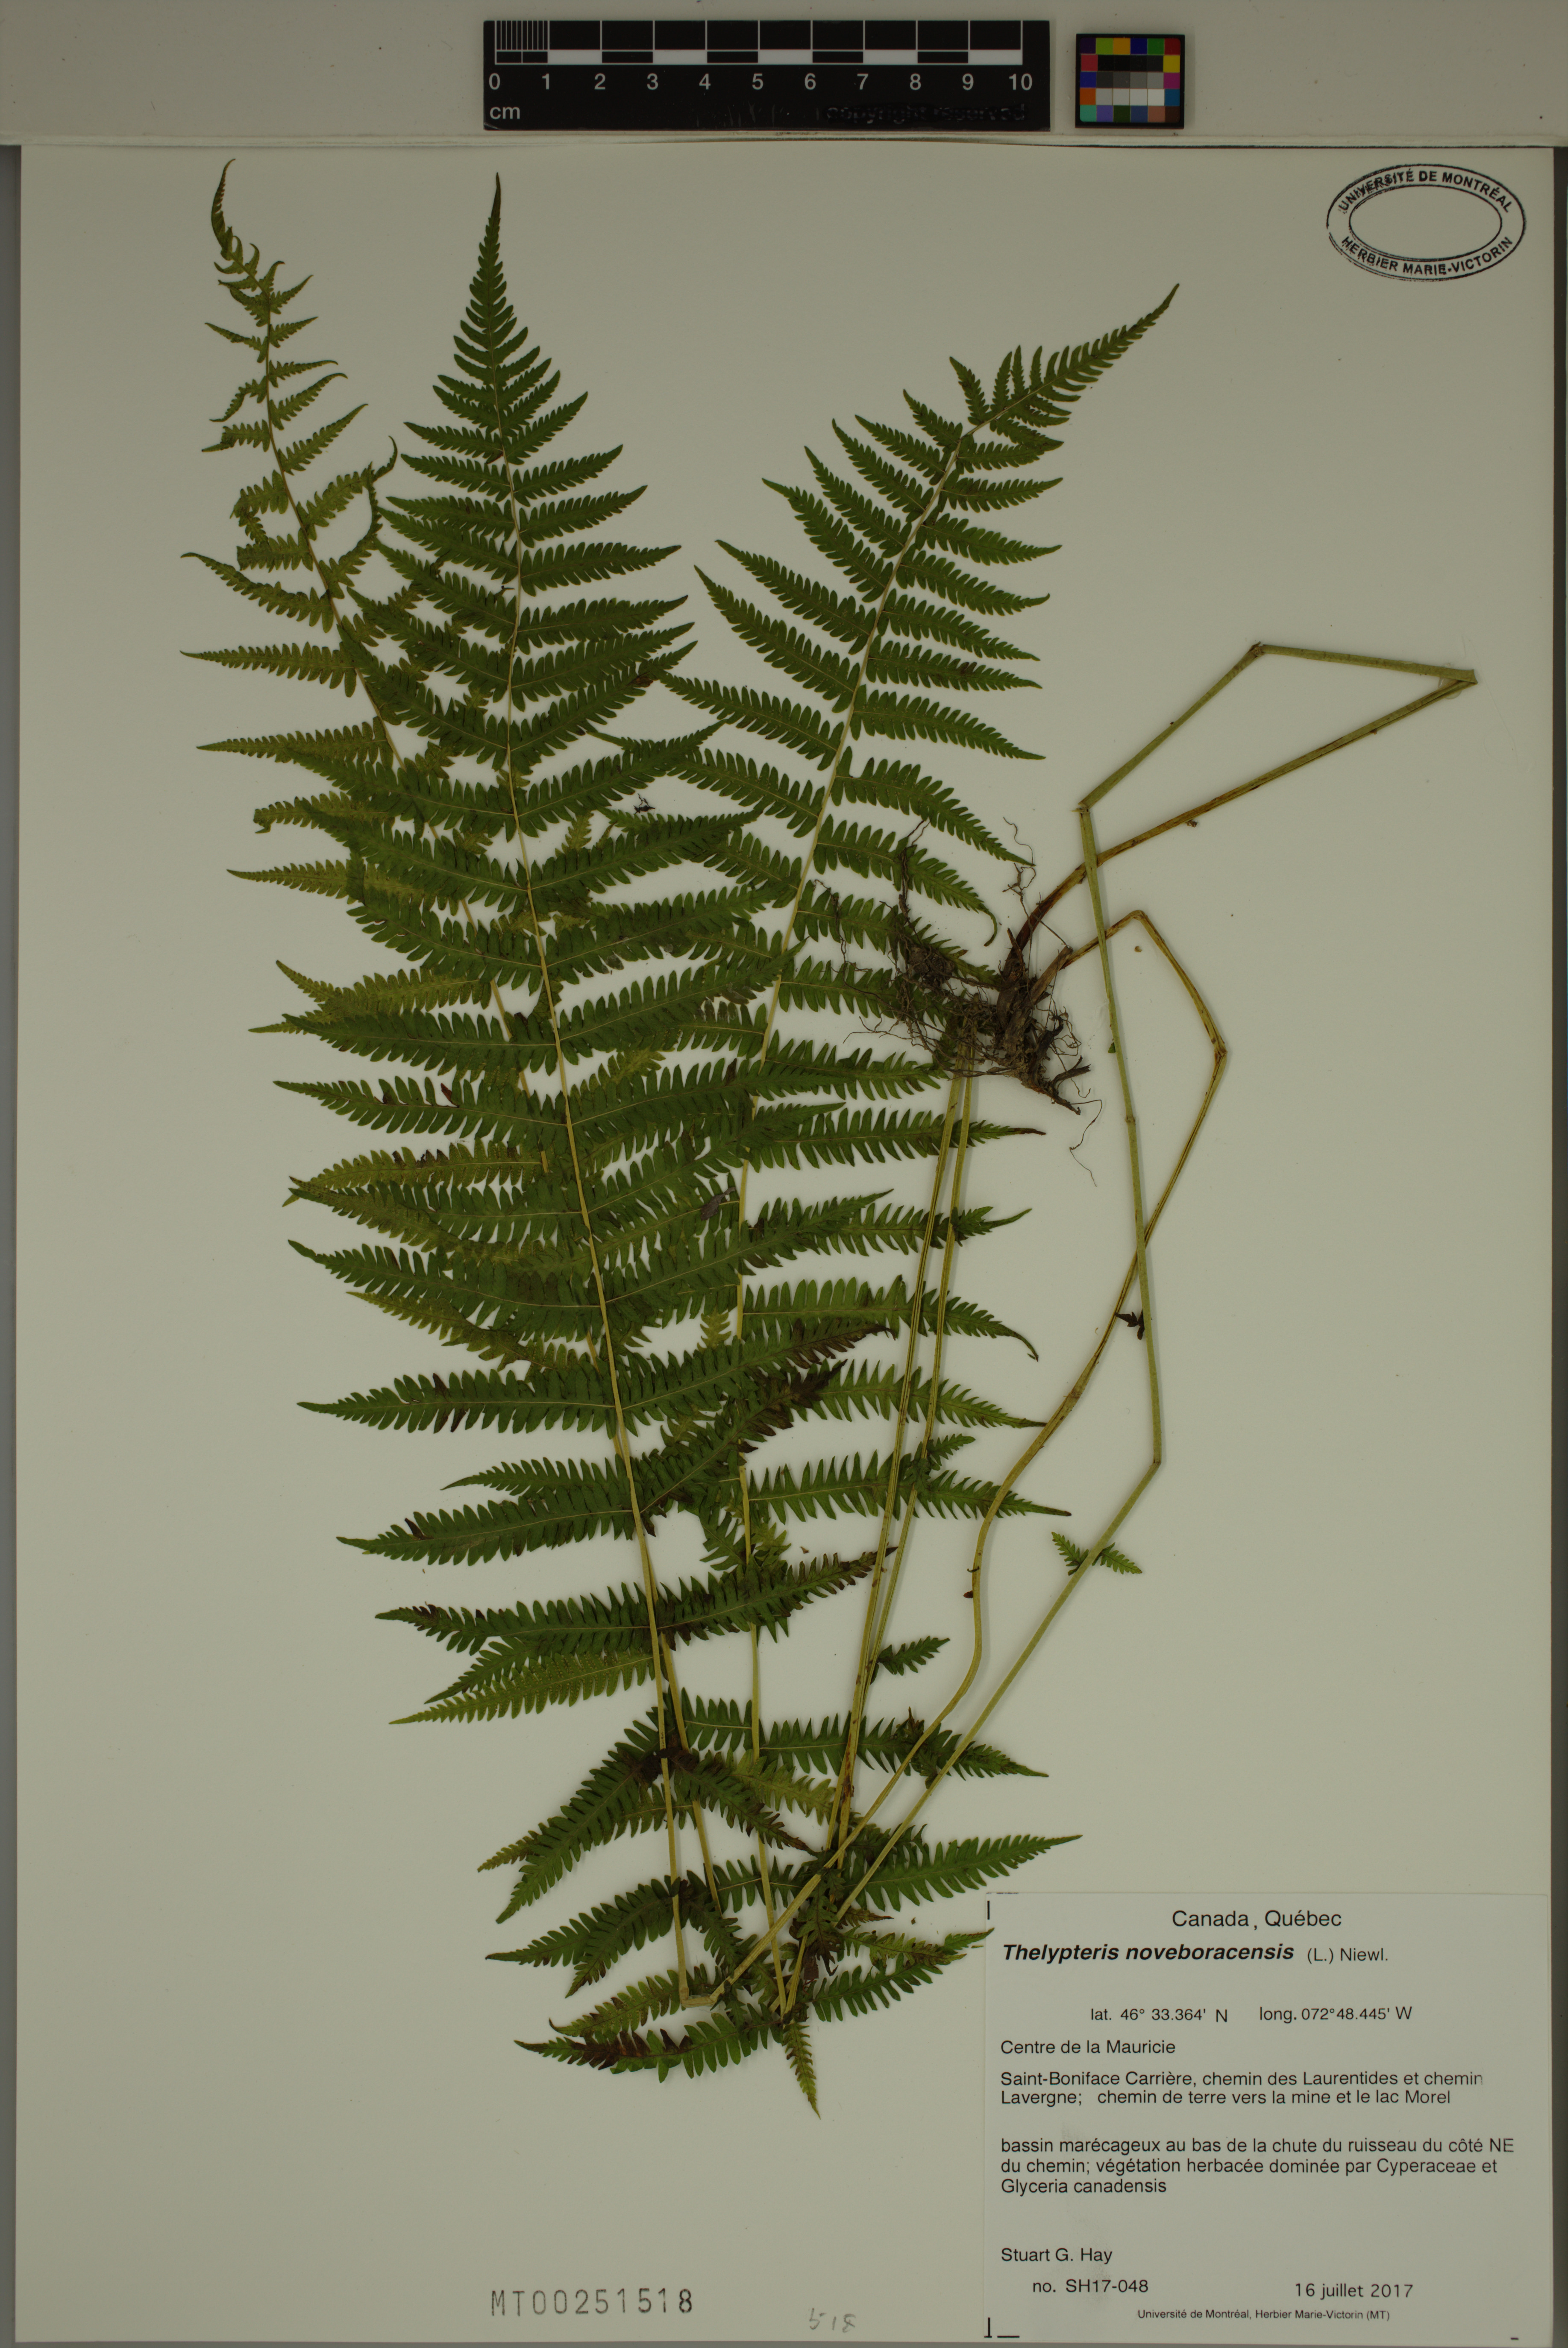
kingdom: Plantae
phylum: Tracheophyta
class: Polypodiopsida
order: Polypodiales
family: Thelypteridaceae
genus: Amauropelta
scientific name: Amauropelta noveboracensis
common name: New york fern
